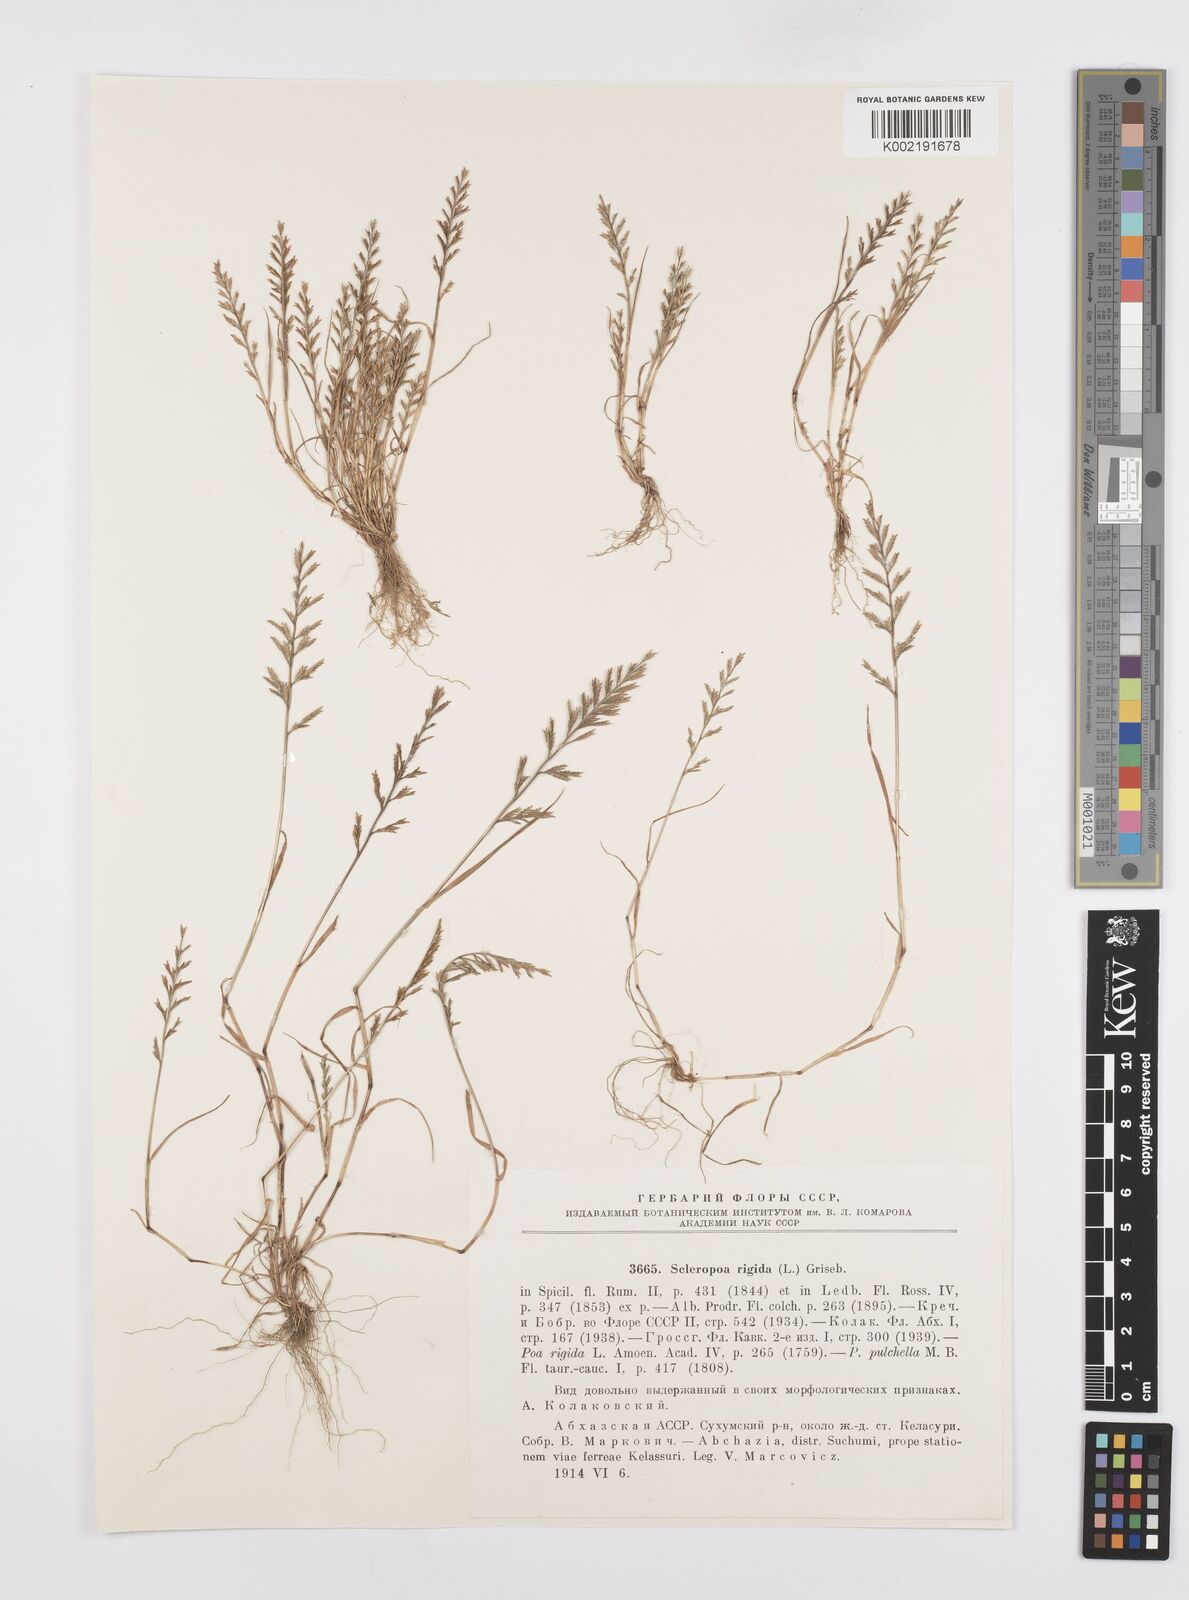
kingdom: Plantae
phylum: Tracheophyta
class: Liliopsida
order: Poales
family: Poaceae
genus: Catapodium
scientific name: Catapodium rigidum
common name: Fern-grass
